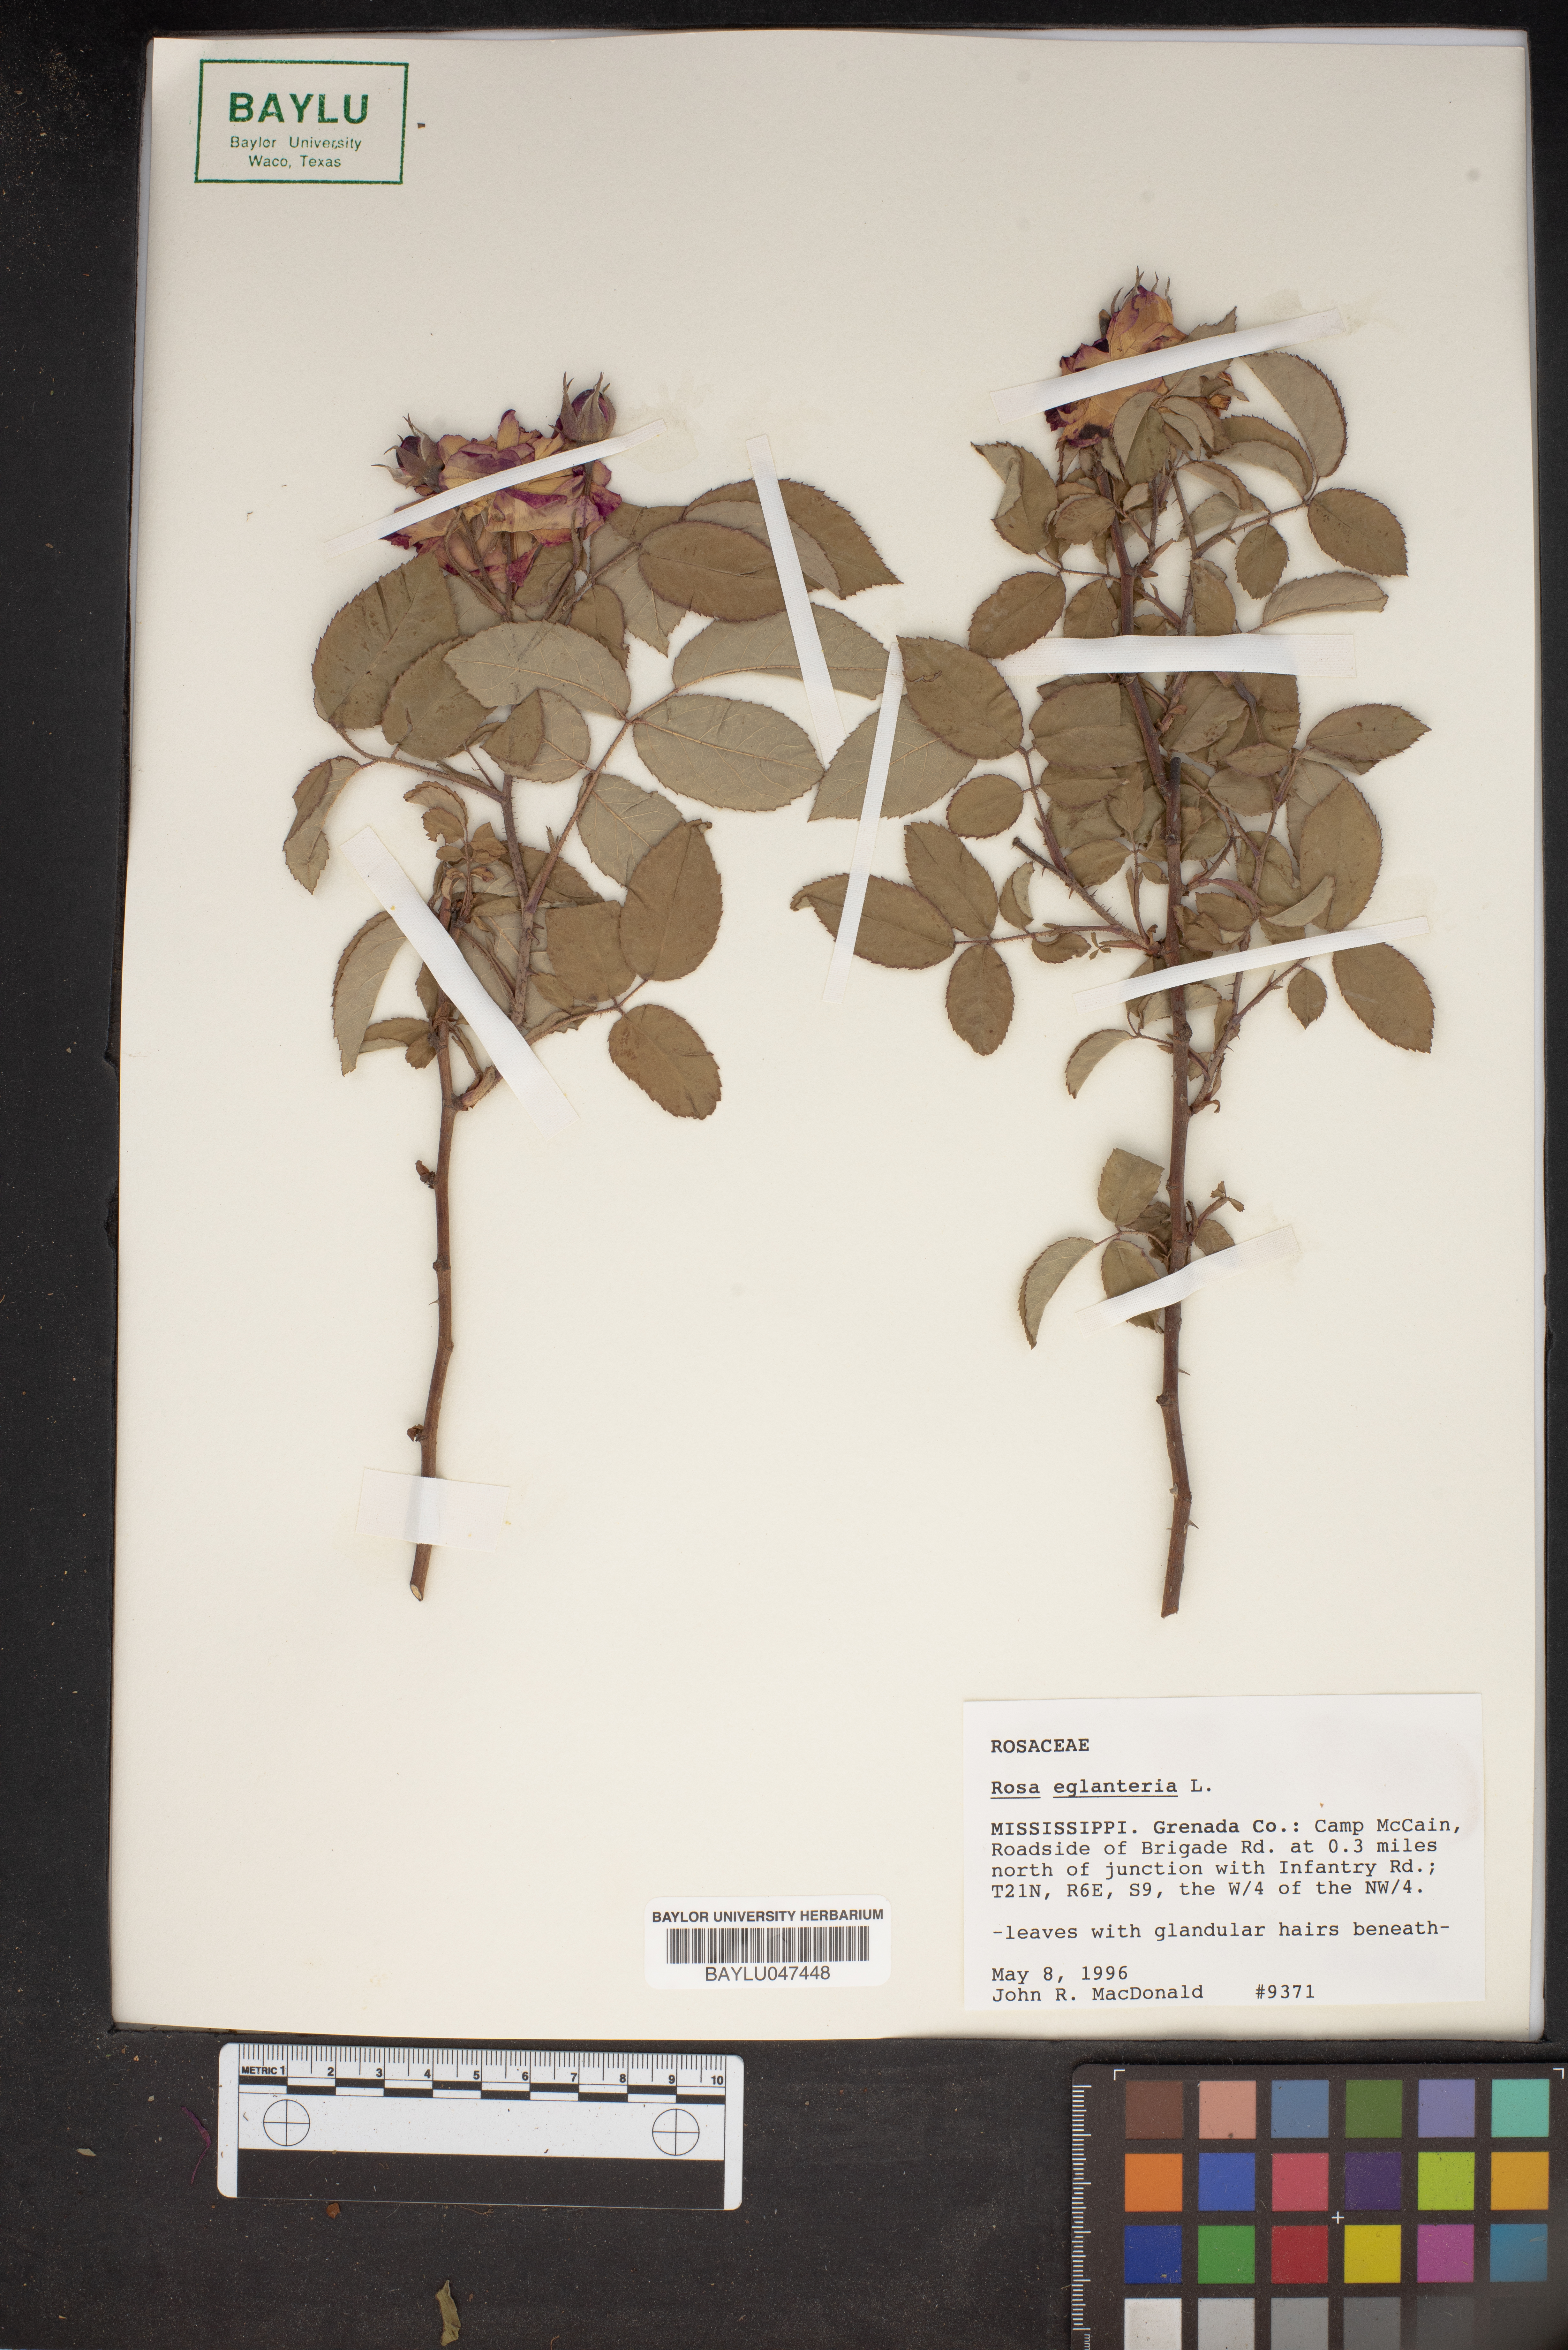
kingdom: Plantae
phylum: Tracheophyta
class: Magnoliopsida
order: Rosales
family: Rosaceae
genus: Rosa
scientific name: Rosa eglanteria
